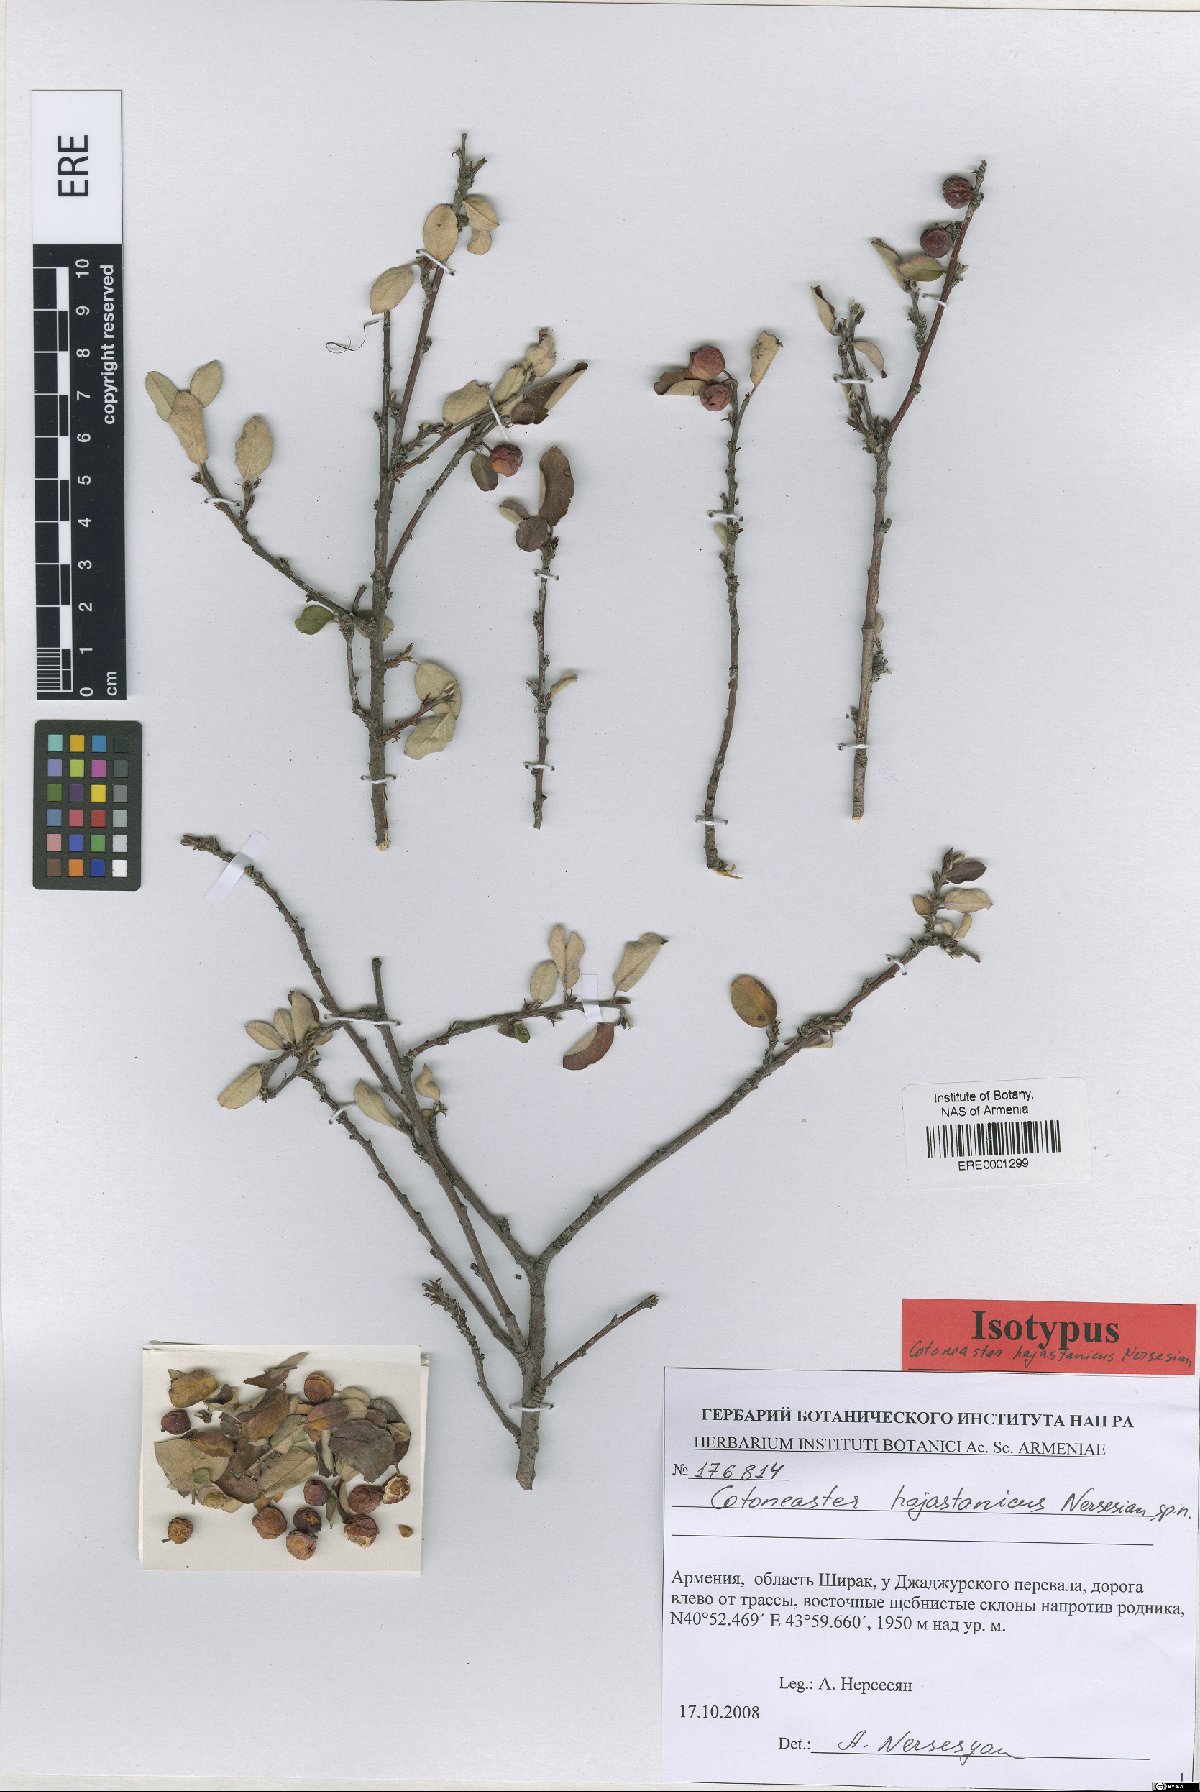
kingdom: Plantae
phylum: Tracheophyta
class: Magnoliopsida
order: Rosales
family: Rosaceae
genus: Cotoneaster
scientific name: Cotoneaster hajastanicus
